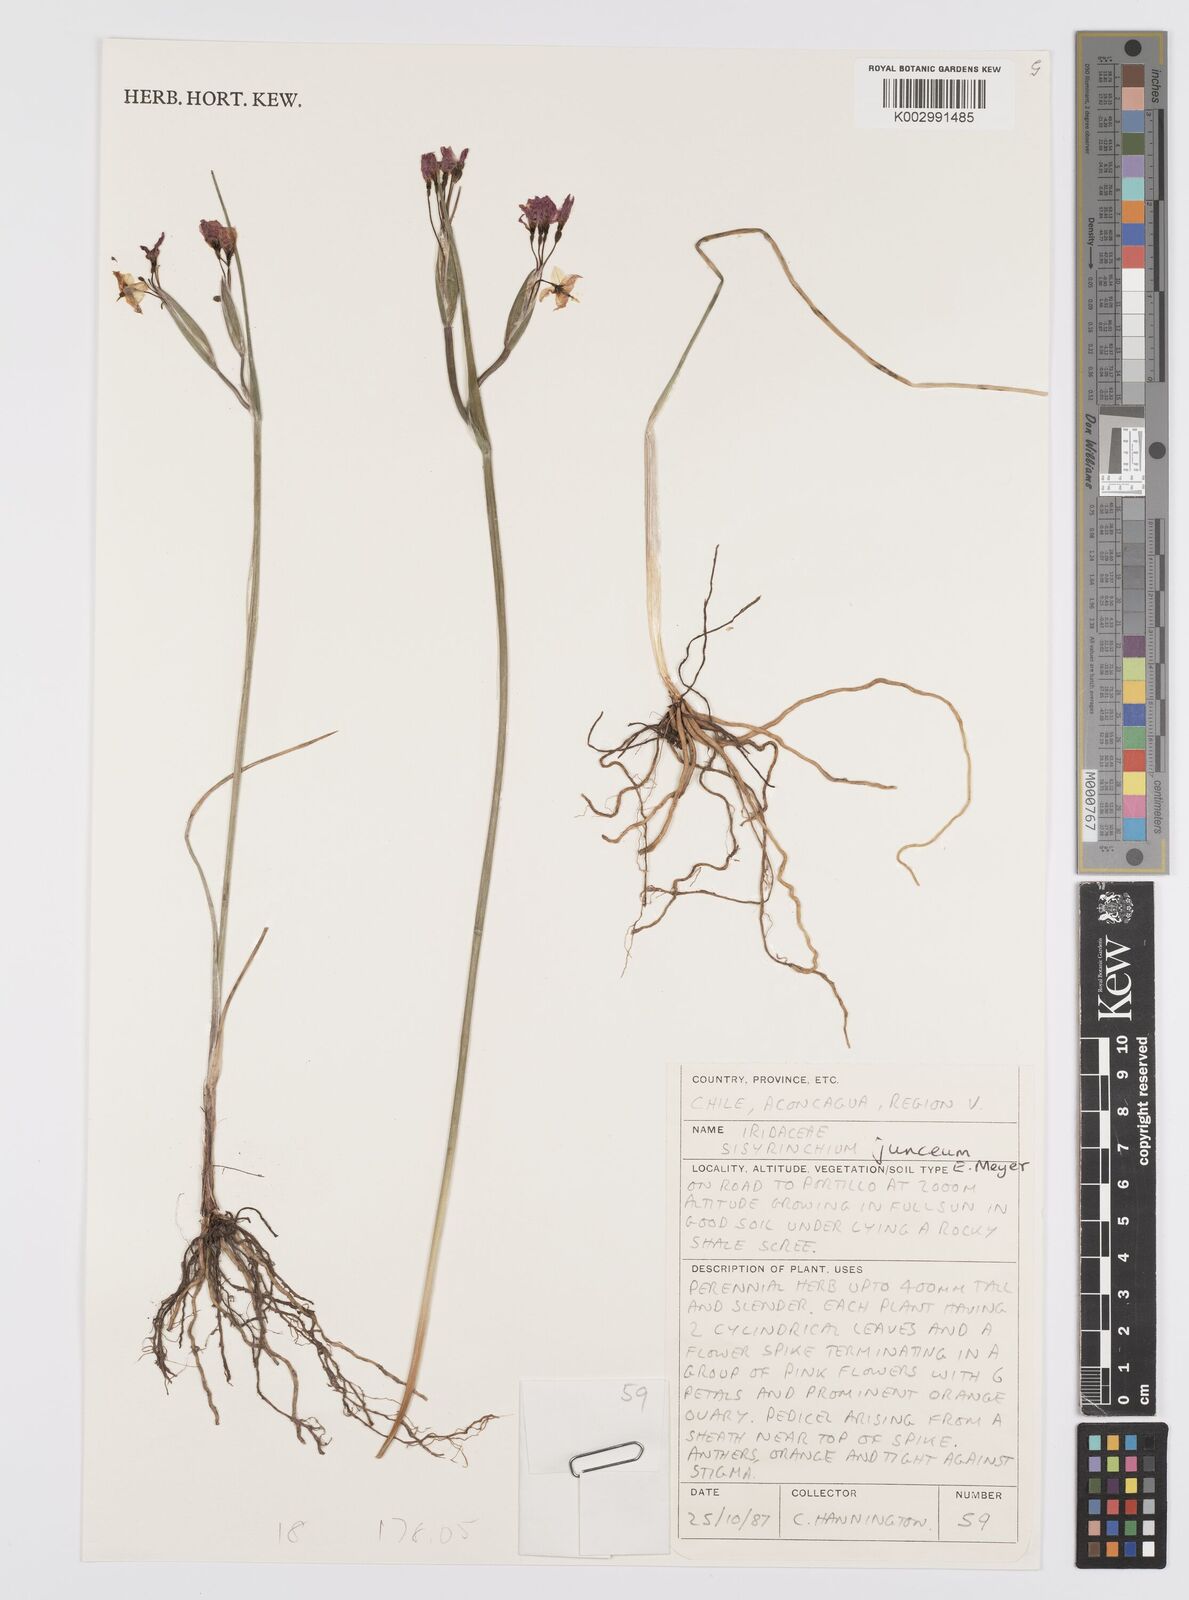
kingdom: Plantae
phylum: Tracheophyta
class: Liliopsida
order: Asparagales
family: Iridaceae
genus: Olsynium
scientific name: Olsynium junceum
